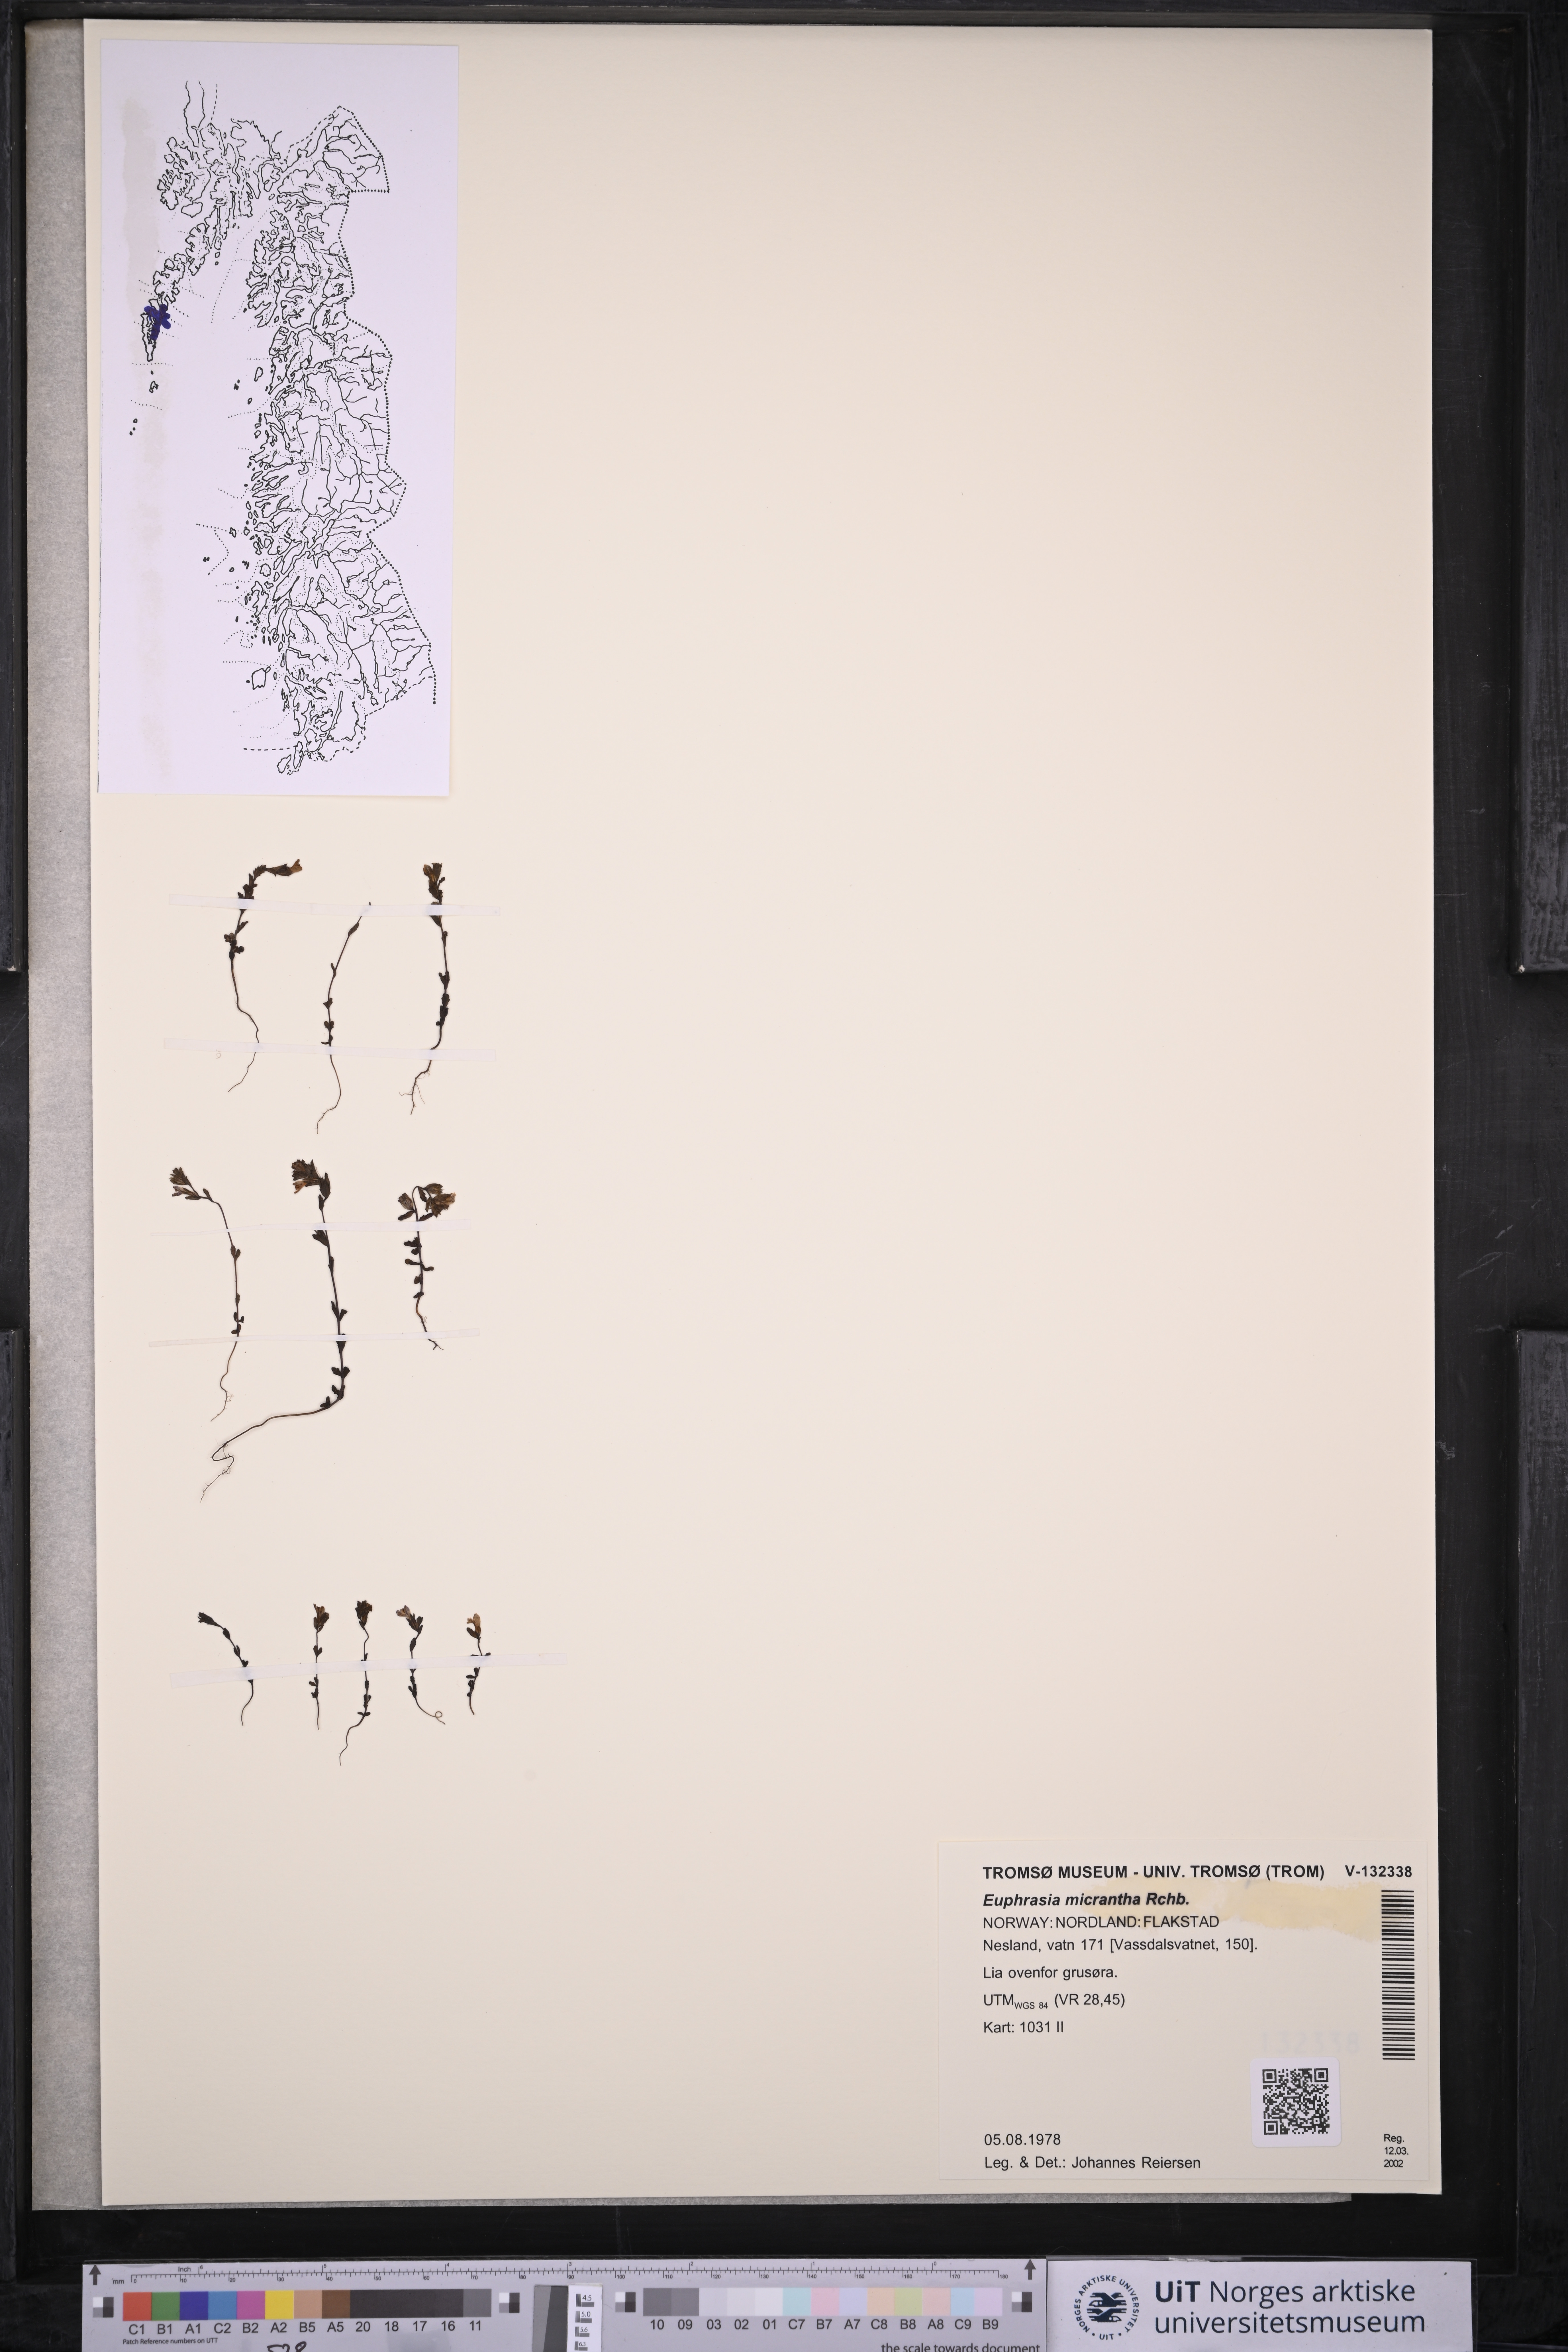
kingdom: Plantae
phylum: Tracheophyta
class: Magnoliopsida
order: Lamiales
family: Orobanchaceae
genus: Euphrasia
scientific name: Euphrasia micrantha
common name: Northern eyebright
